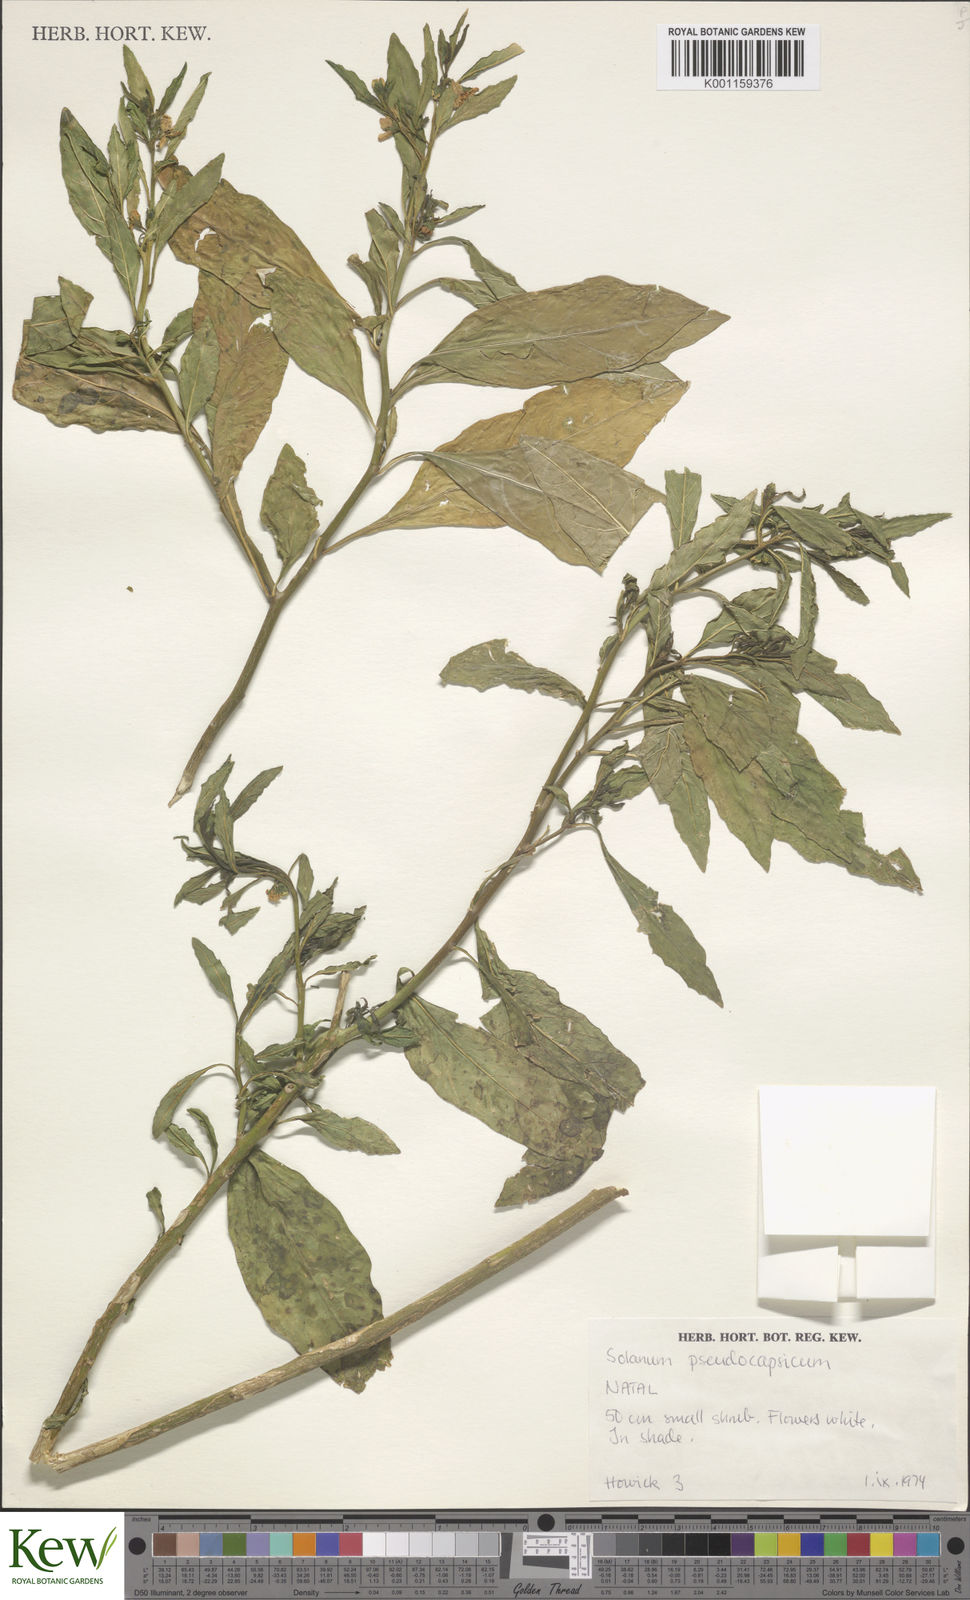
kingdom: Plantae
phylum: Tracheophyta
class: Magnoliopsida
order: Solanales
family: Solanaceae
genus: Solanum
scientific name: Solanum pseudocapsicum
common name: Jerusalem cherry
